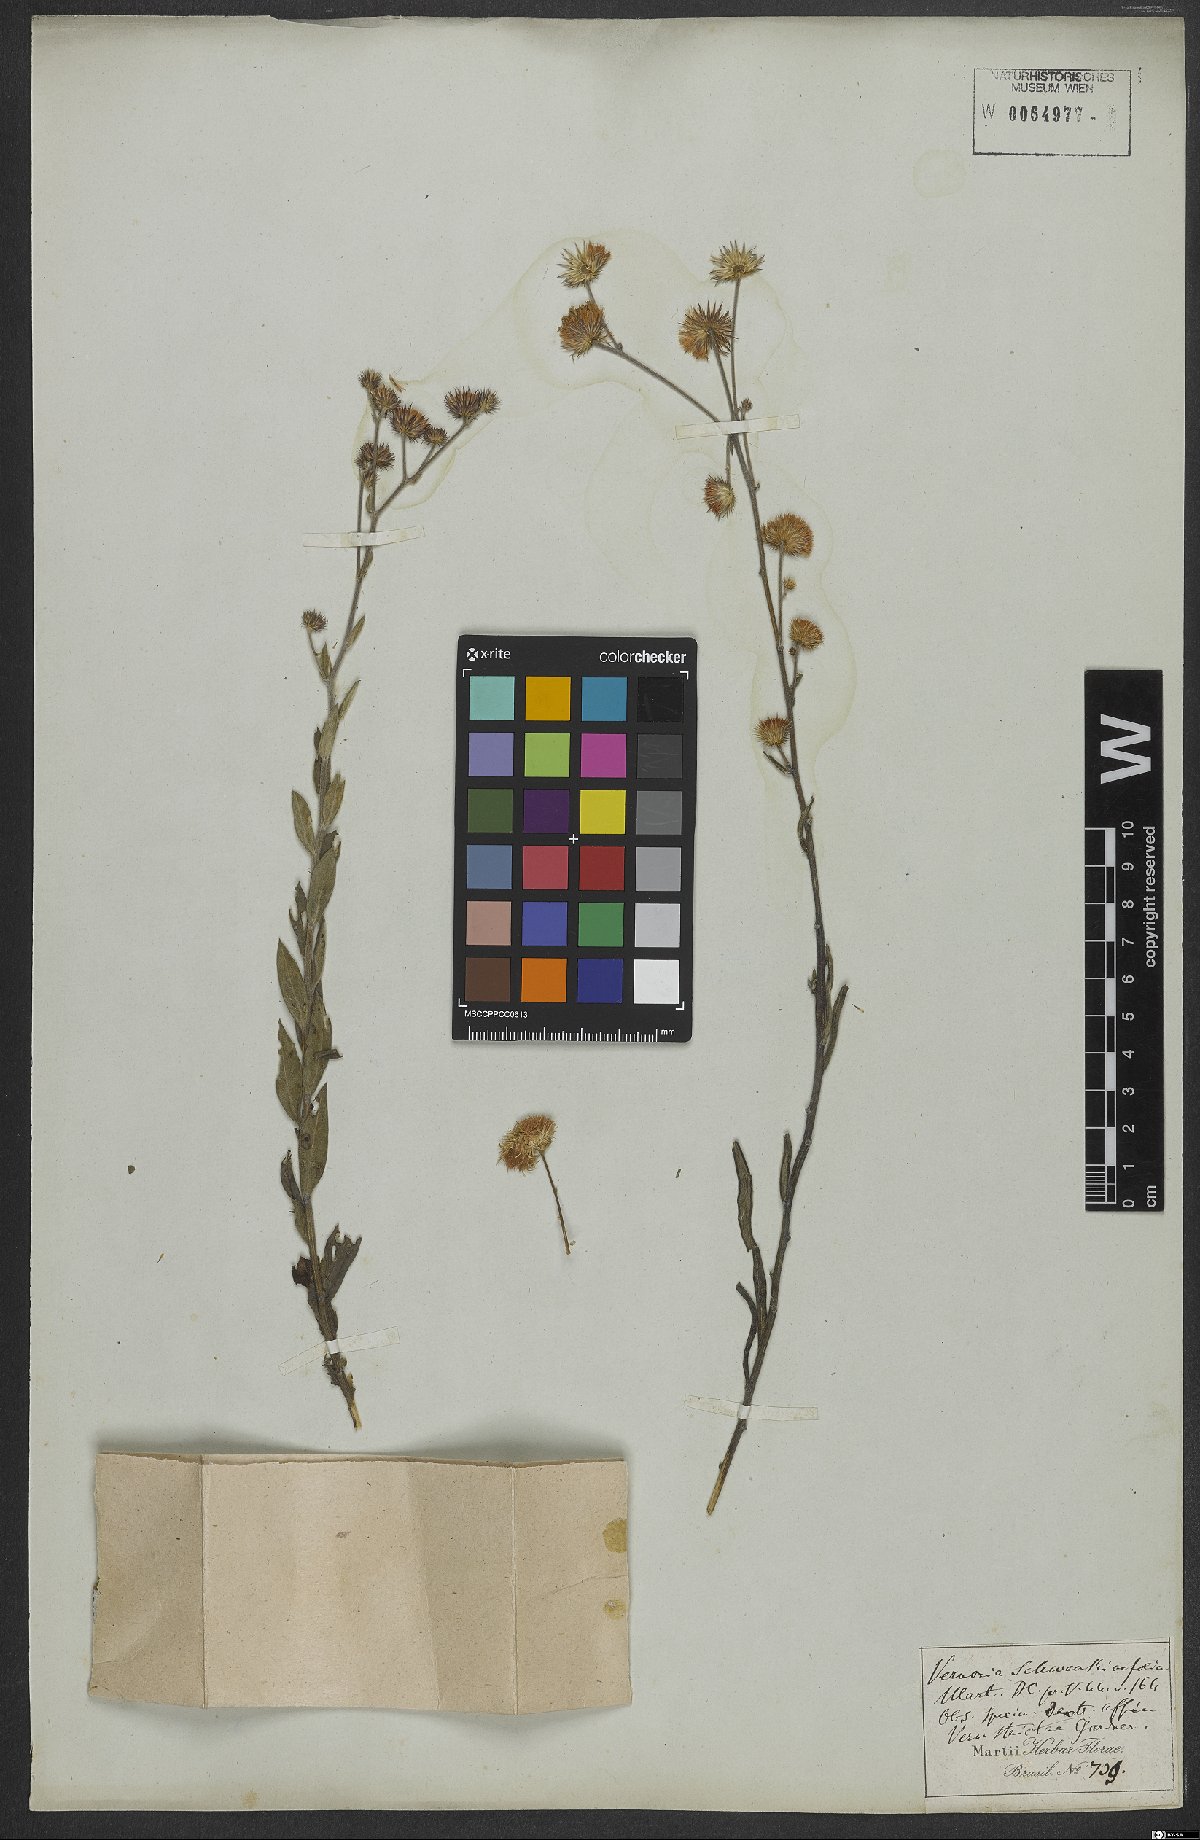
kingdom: Plantae
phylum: Tracheophyta
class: Magnoliopsida
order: Asterales
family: Asteraceae
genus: Echinocoryne
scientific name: Echinocoryne schwenkiifolia
